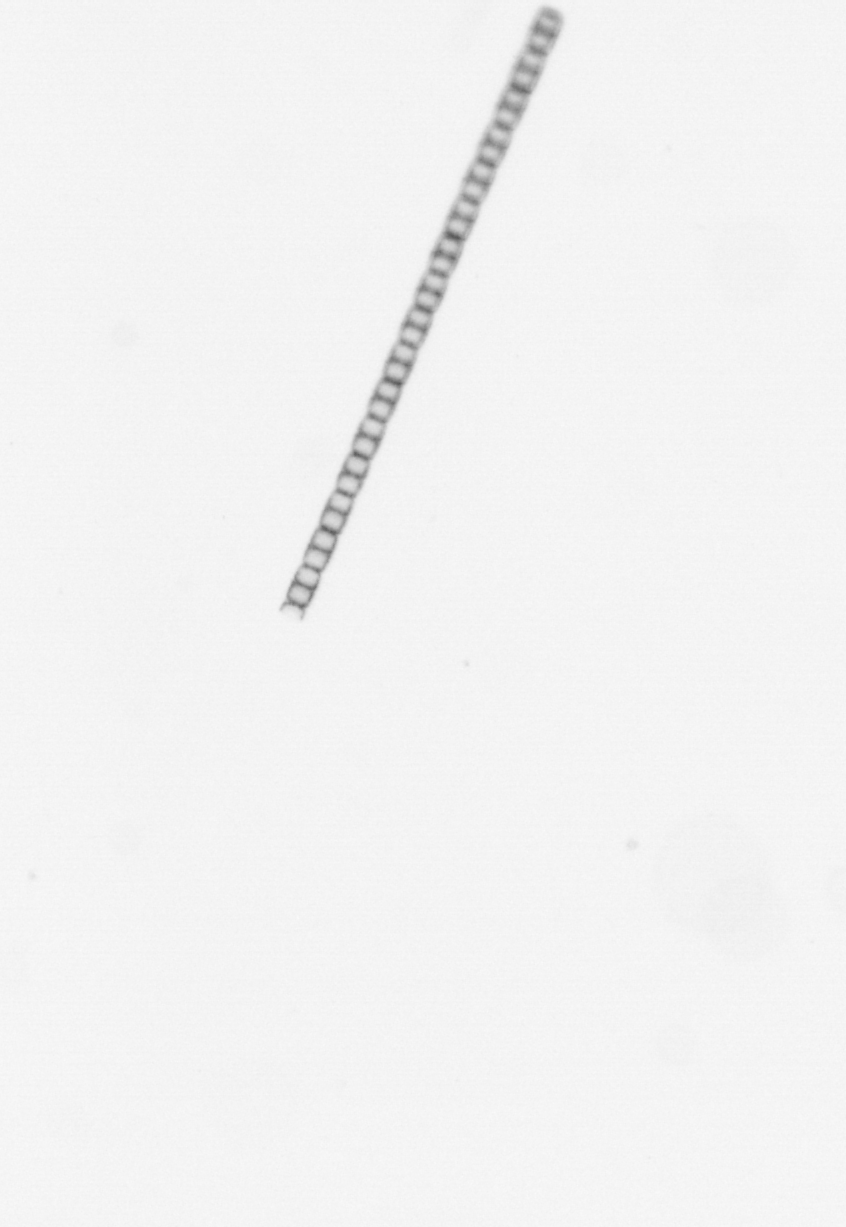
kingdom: Chromista
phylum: Ochrophyta
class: Bacillariophyceae
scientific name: Bacillariophyceae
